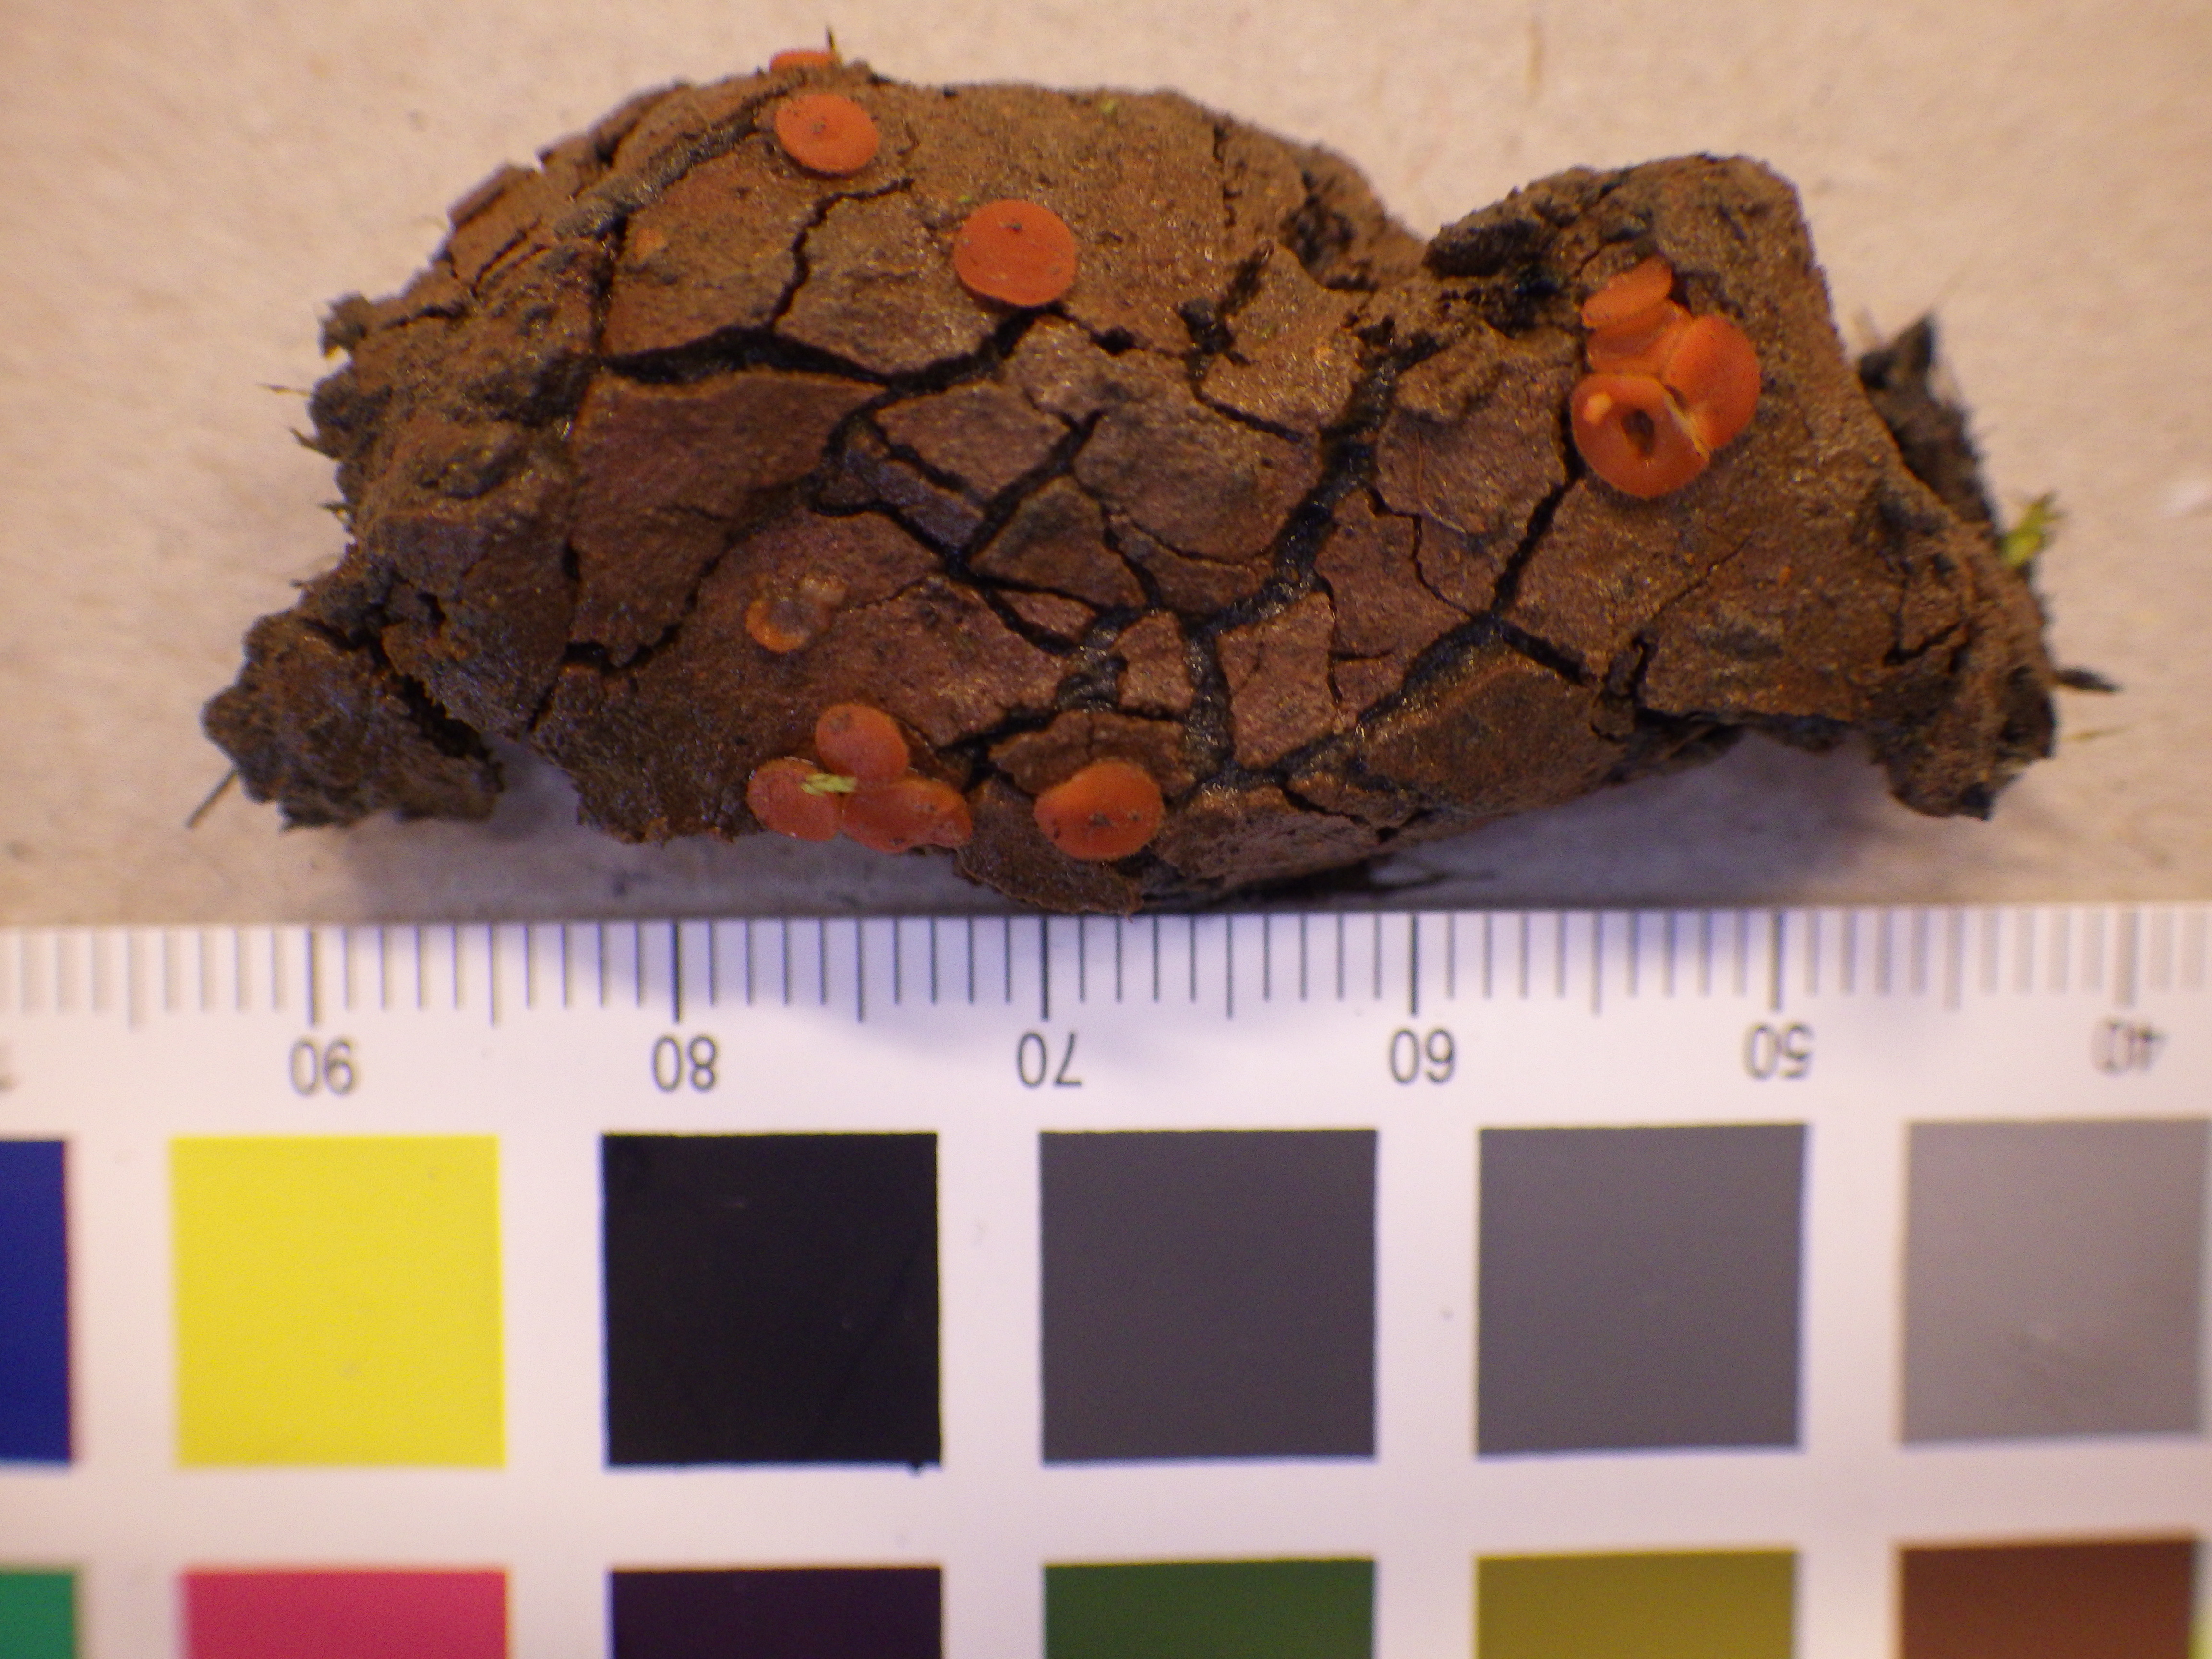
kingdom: Fungi
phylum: Ascomycota
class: Pezizomycetes
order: Pezizales
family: Pyronemataceae
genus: Cheilymenia
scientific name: Cheilymenia chionophila
